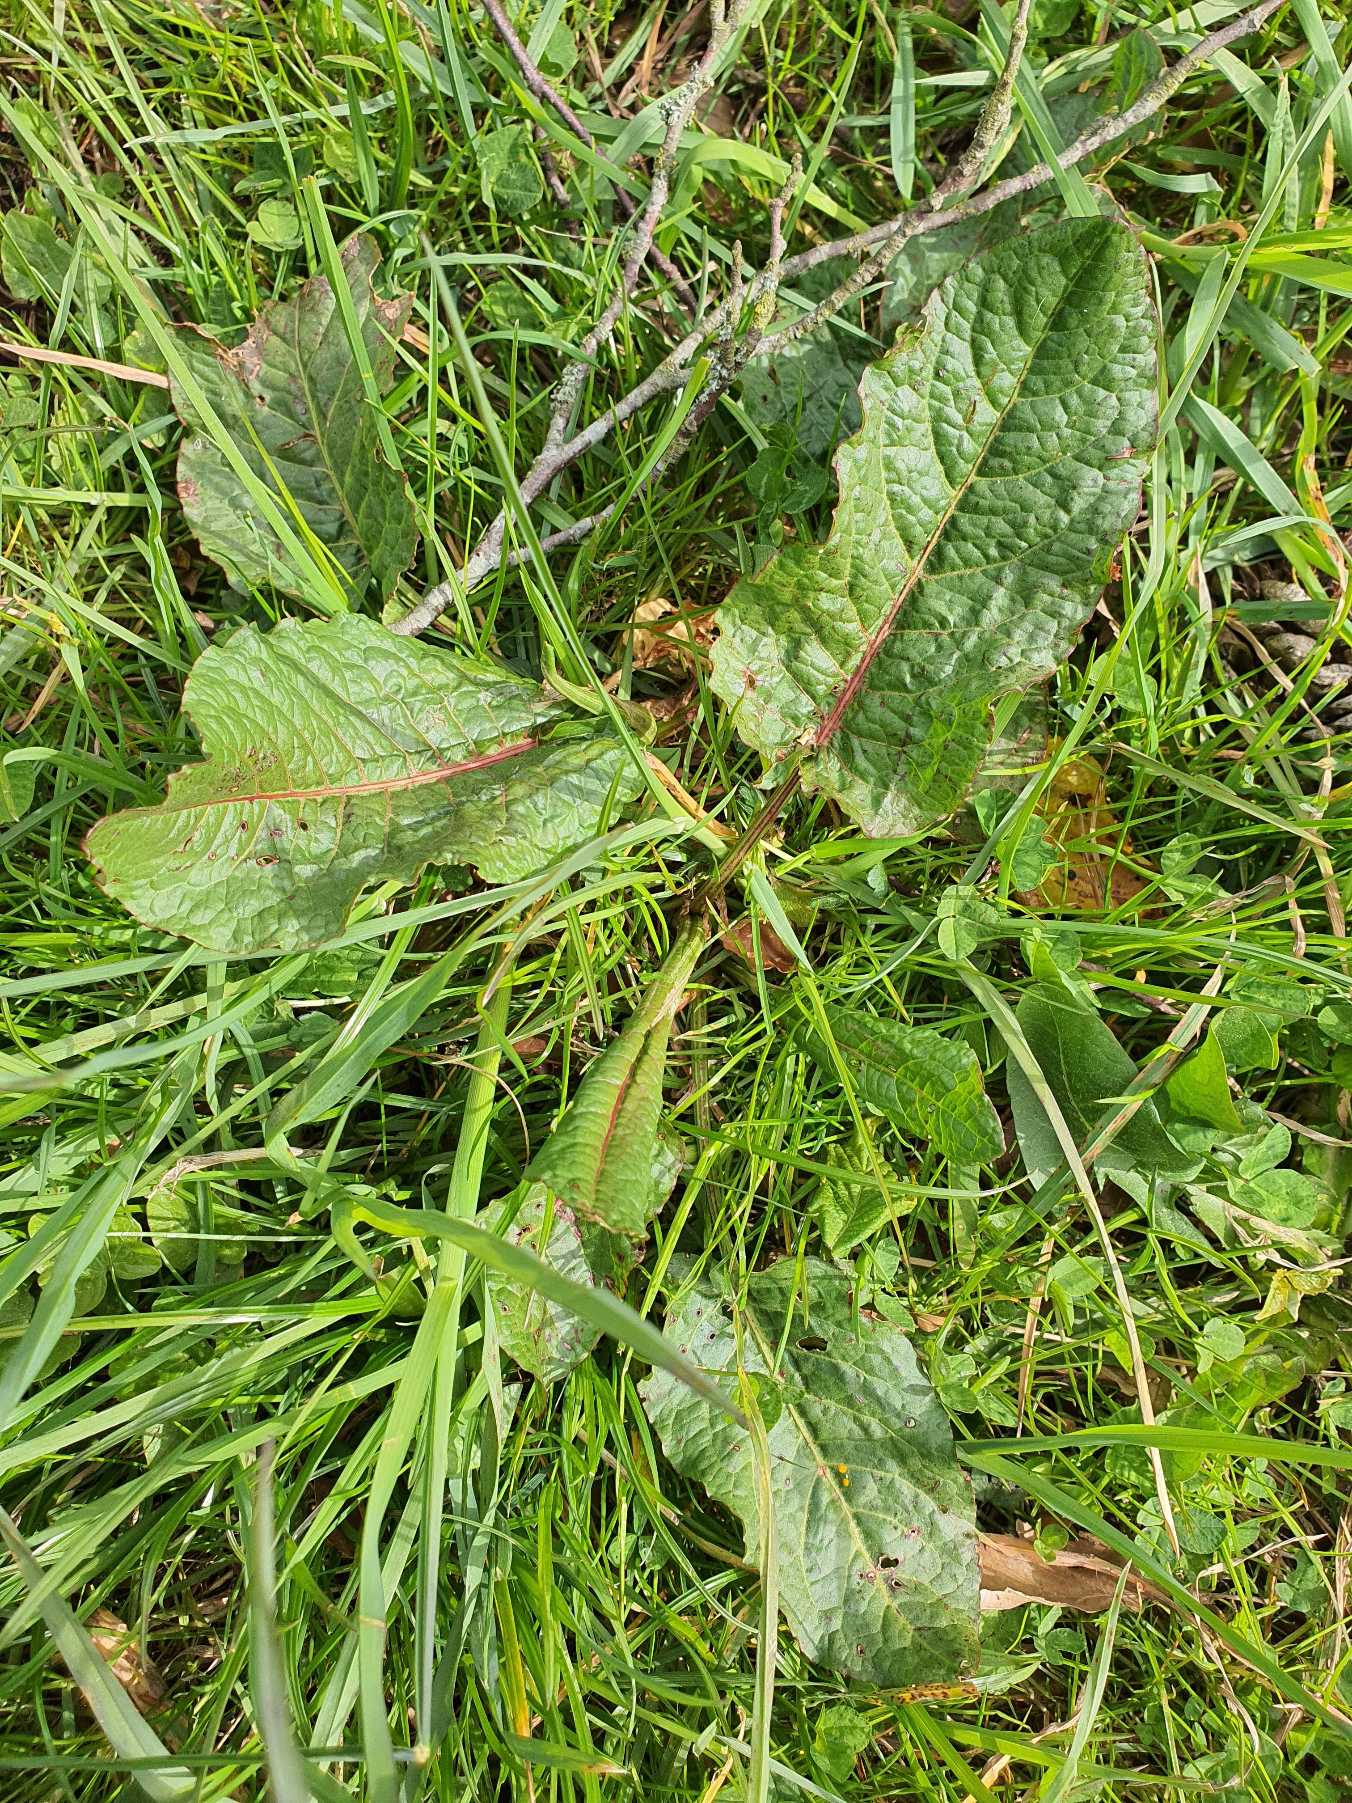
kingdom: Plantae
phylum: Tracheophyta
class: Magnoliopsida
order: Caryophyllales
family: Polygonaceae
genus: Rumex
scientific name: Rumex obtusifolius
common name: Butbladet skræppe
